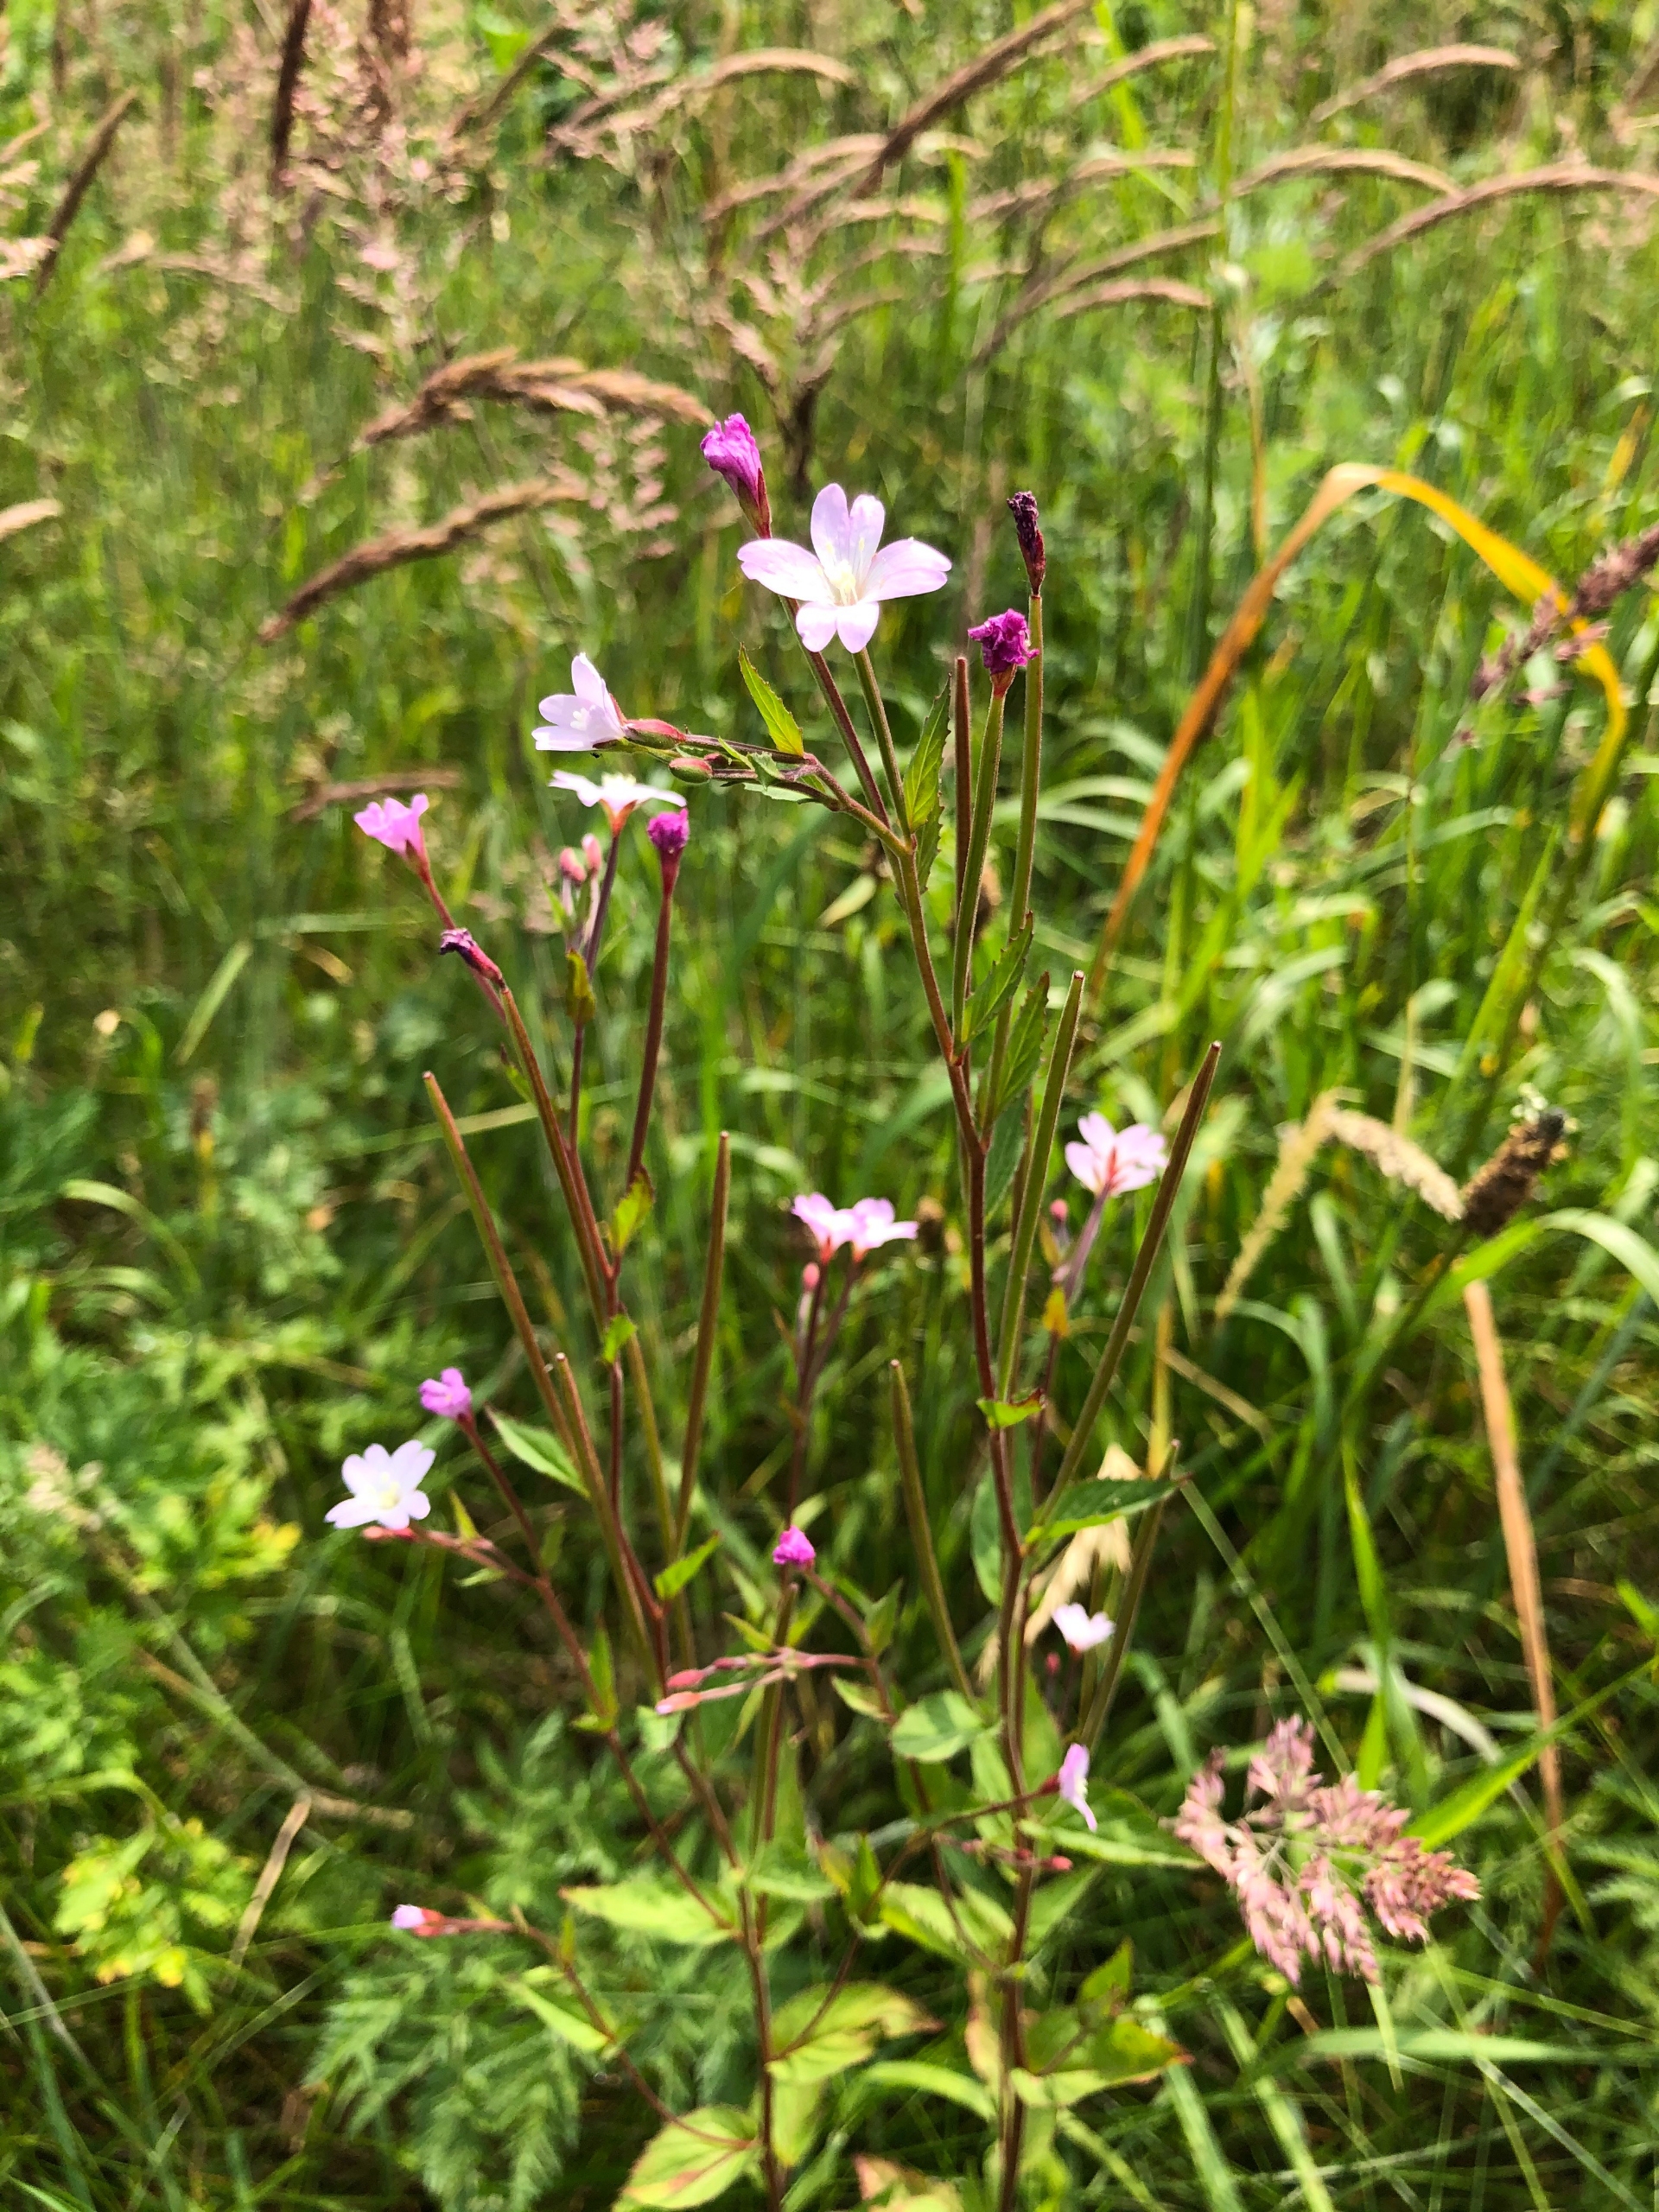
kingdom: Plantae
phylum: Tracheophyta
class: Magnoliopsida
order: Myrtales
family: Onagraceae
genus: Epilobium
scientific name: Epilobium montanum
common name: Glat dueurt
